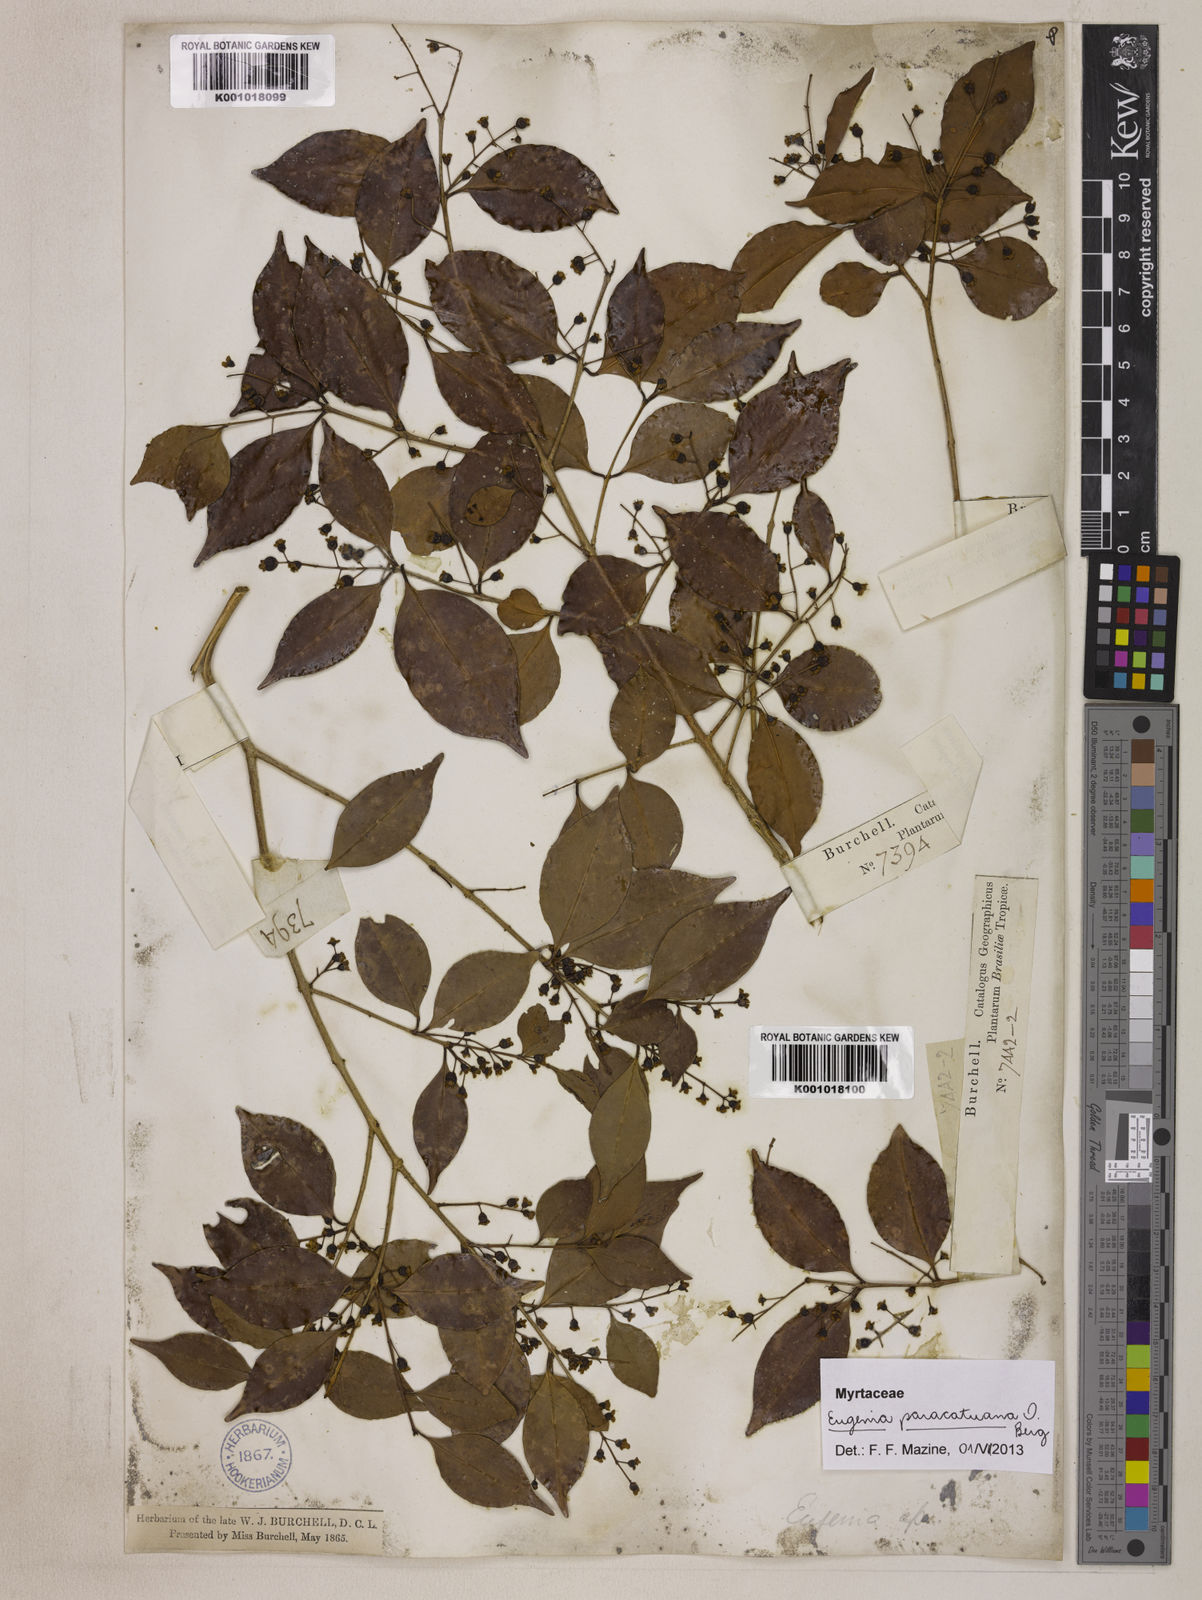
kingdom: Plantae
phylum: Tracheophyta
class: Magnoliopsida
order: Myrtales
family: Myrtaceae
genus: Eugenia
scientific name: Eugenia moraviana
